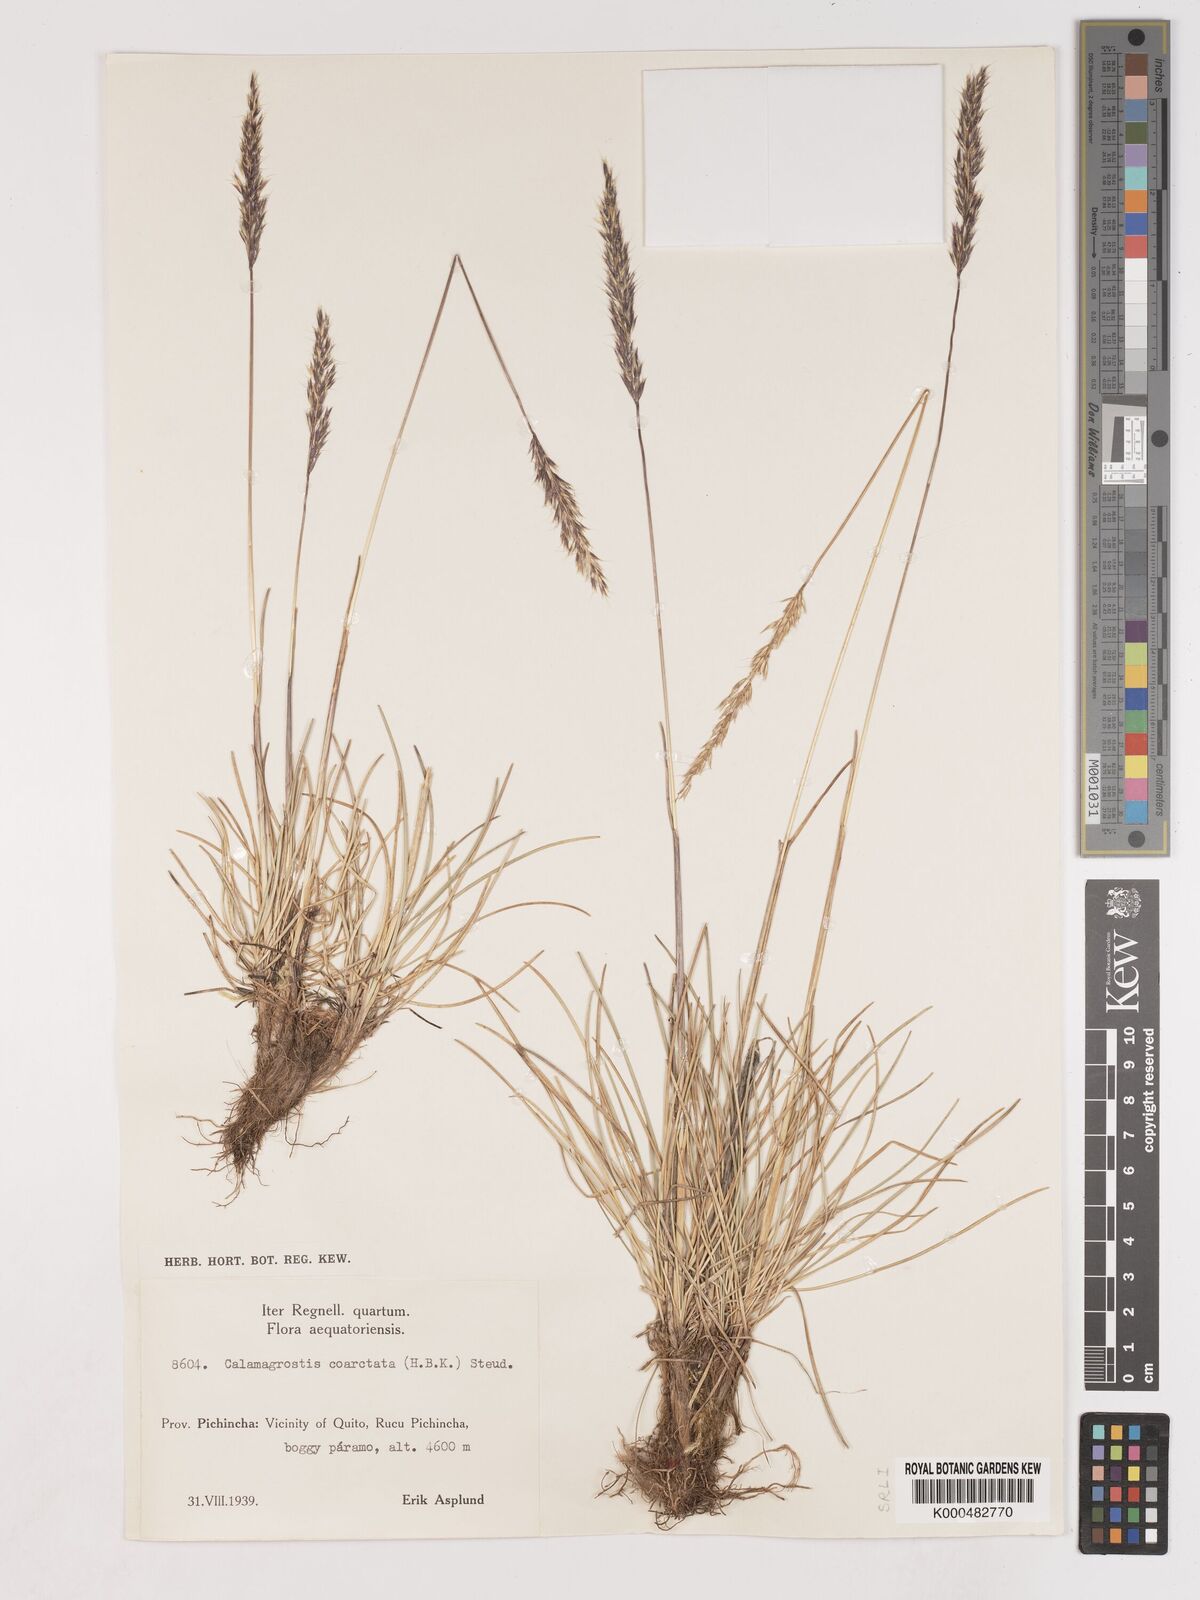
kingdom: Plantae
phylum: Tracheophyta
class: Liliopsida
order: Poales
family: Poaceae
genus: Cinnagrostis
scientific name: Cinnagrostis coarctata
